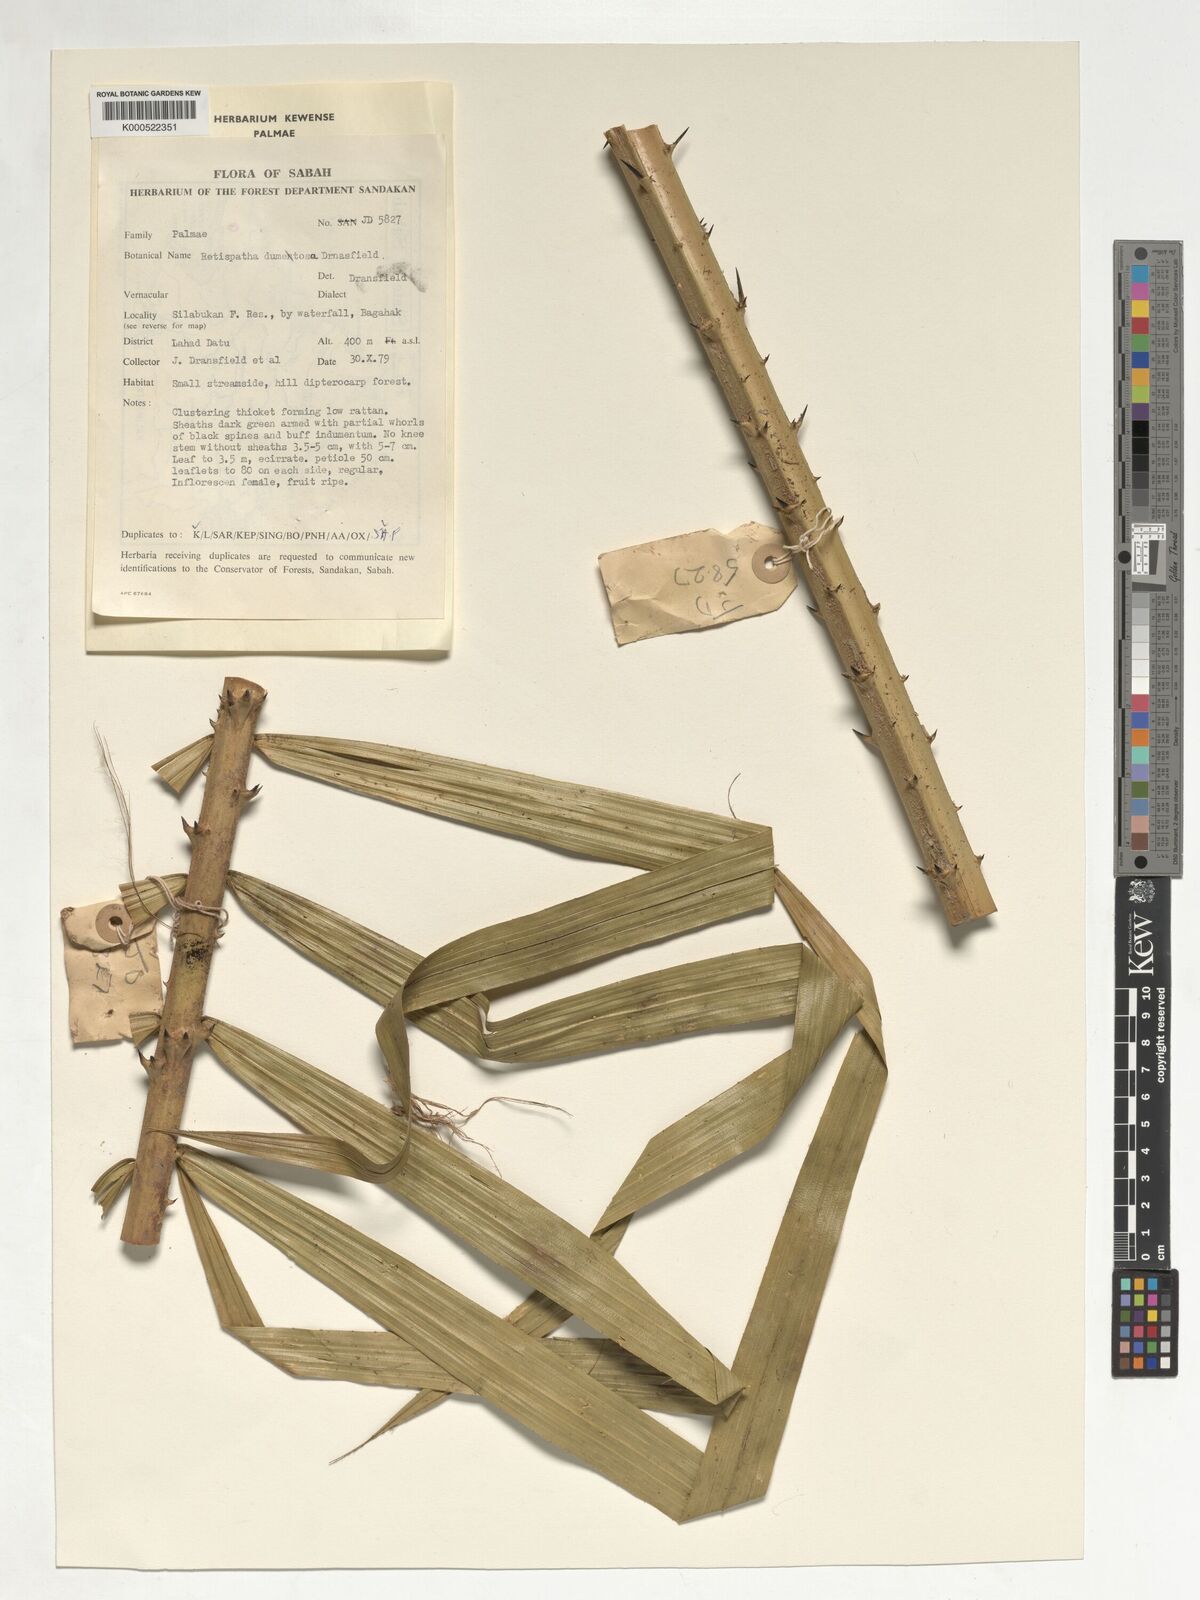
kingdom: Plantae
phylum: Tracheophyta
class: Liliopsida
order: Arecales
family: Arecaceae
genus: Calamus
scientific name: Calamus dumetosus
